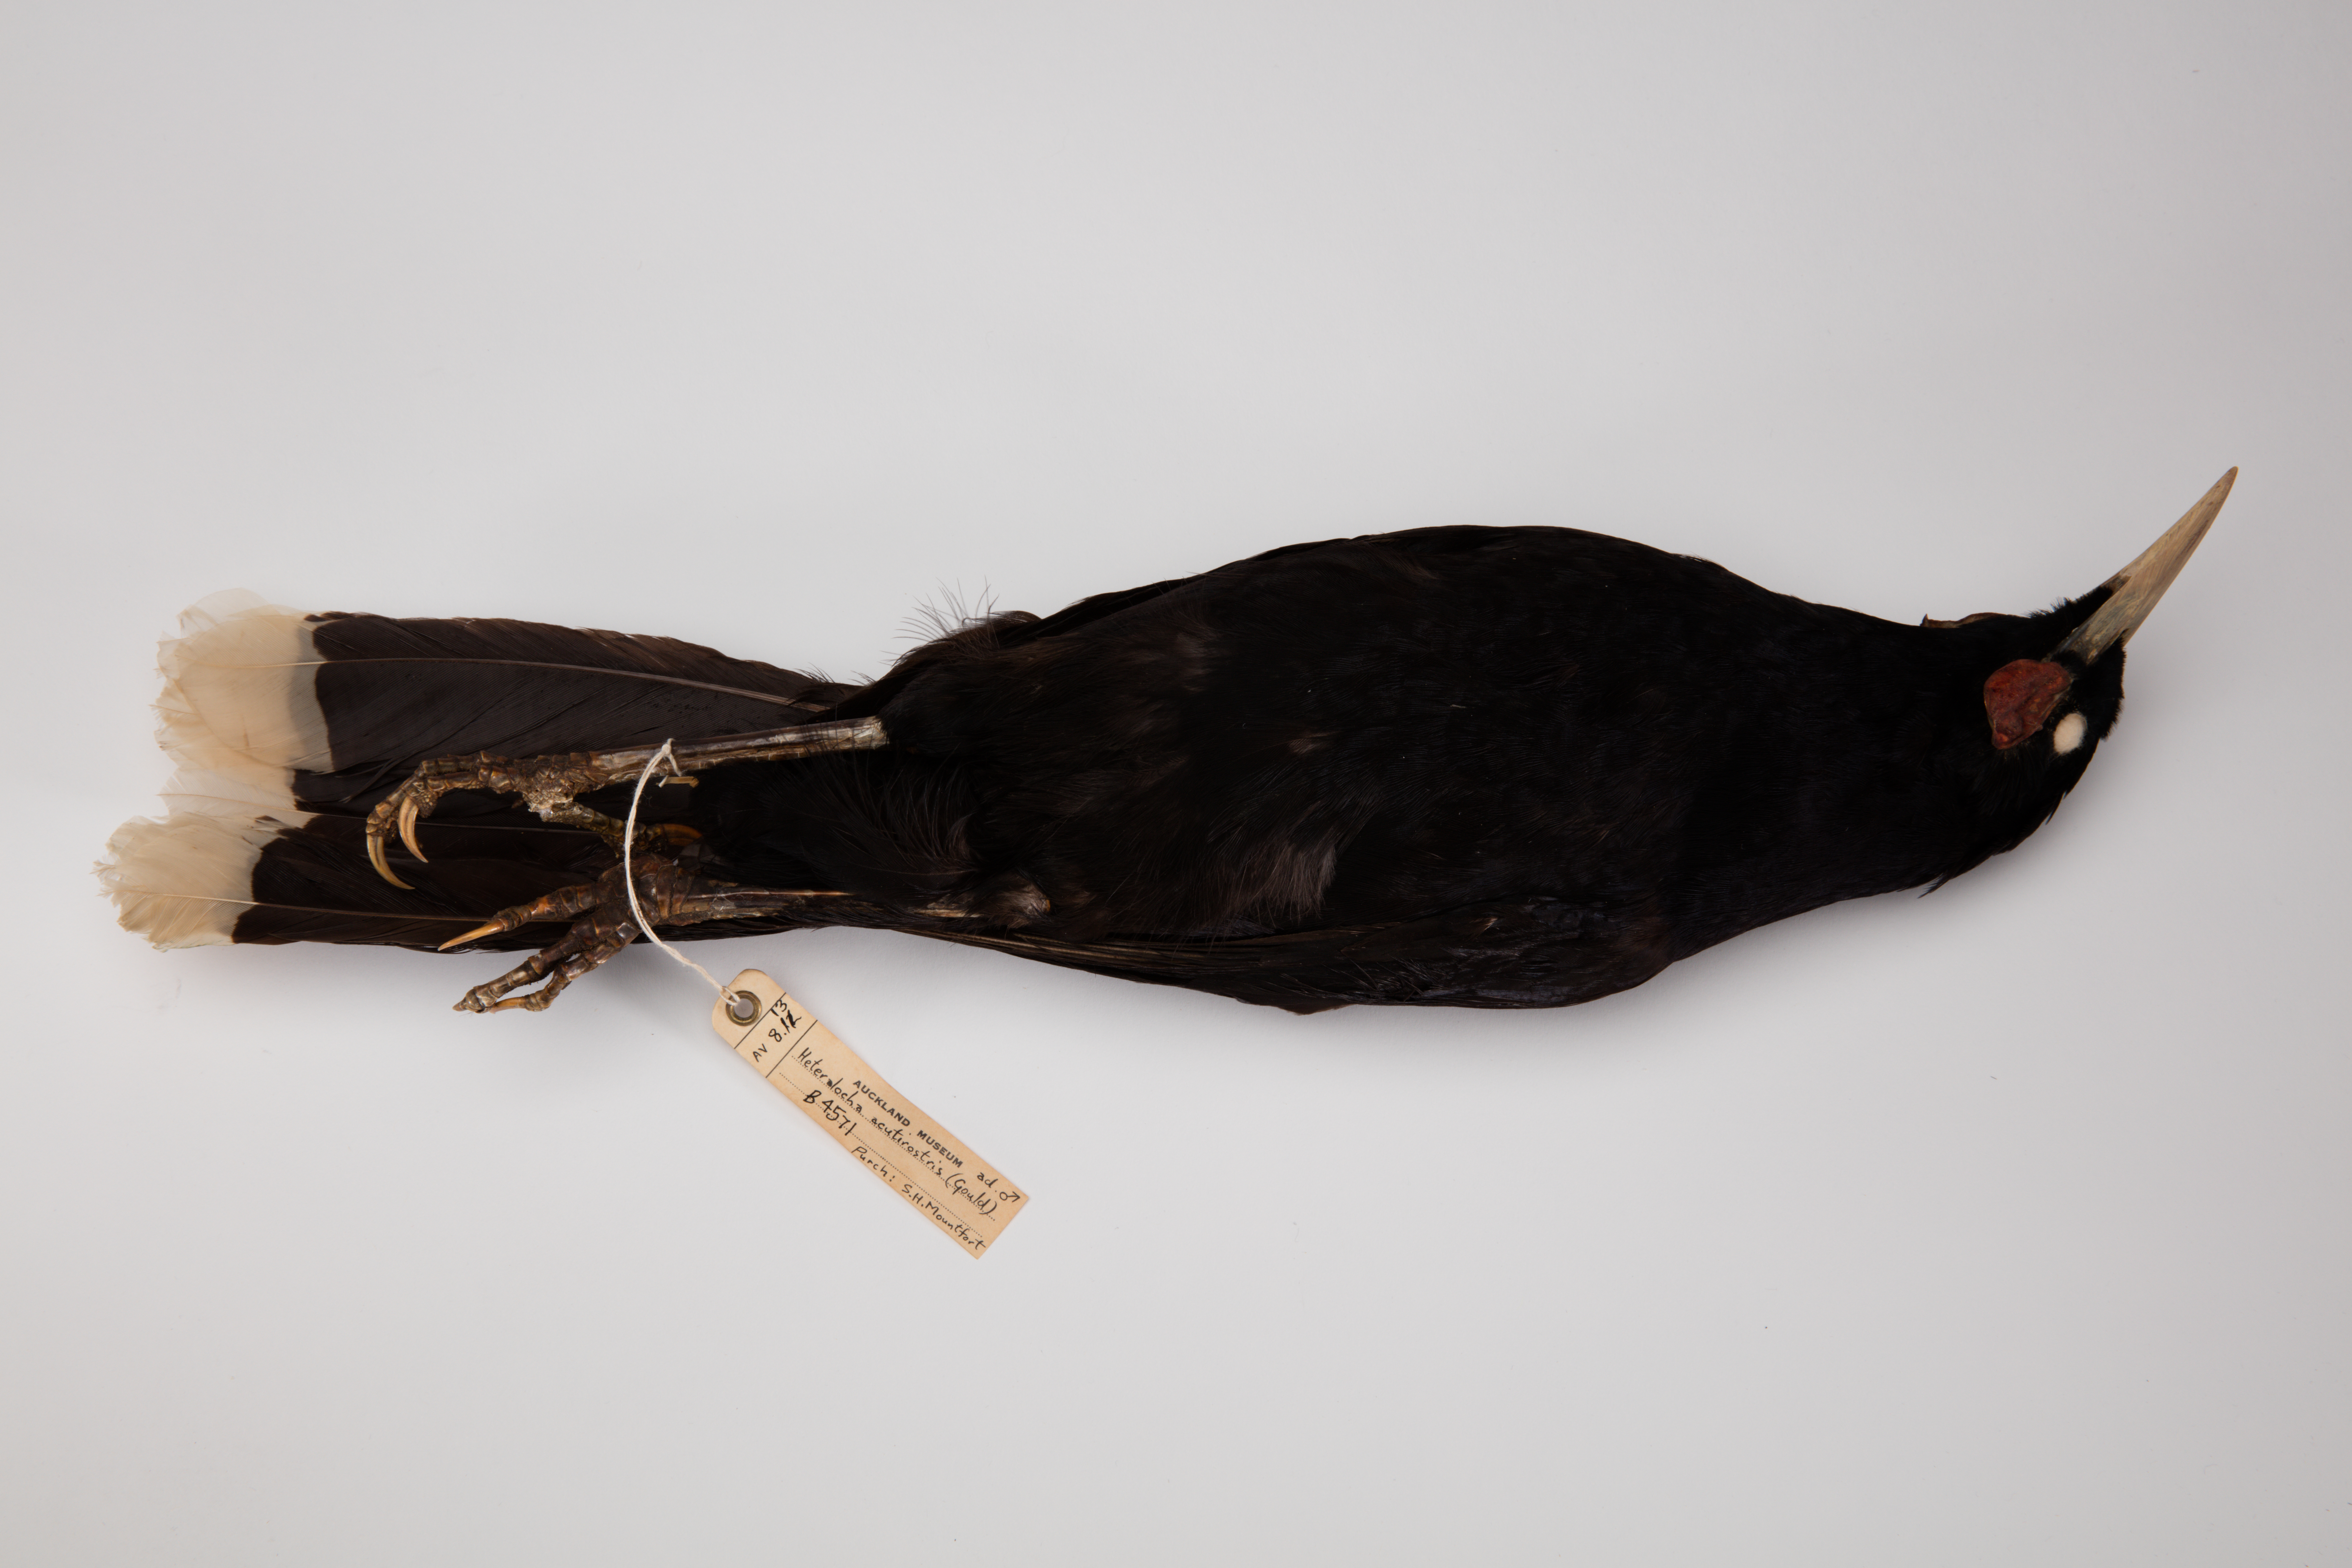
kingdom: Animalia
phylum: Chordata
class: Aves
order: Passeriformes
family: Callaeatidae
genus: Heteralocha
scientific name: Heteralocha acutirostris
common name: Huia
